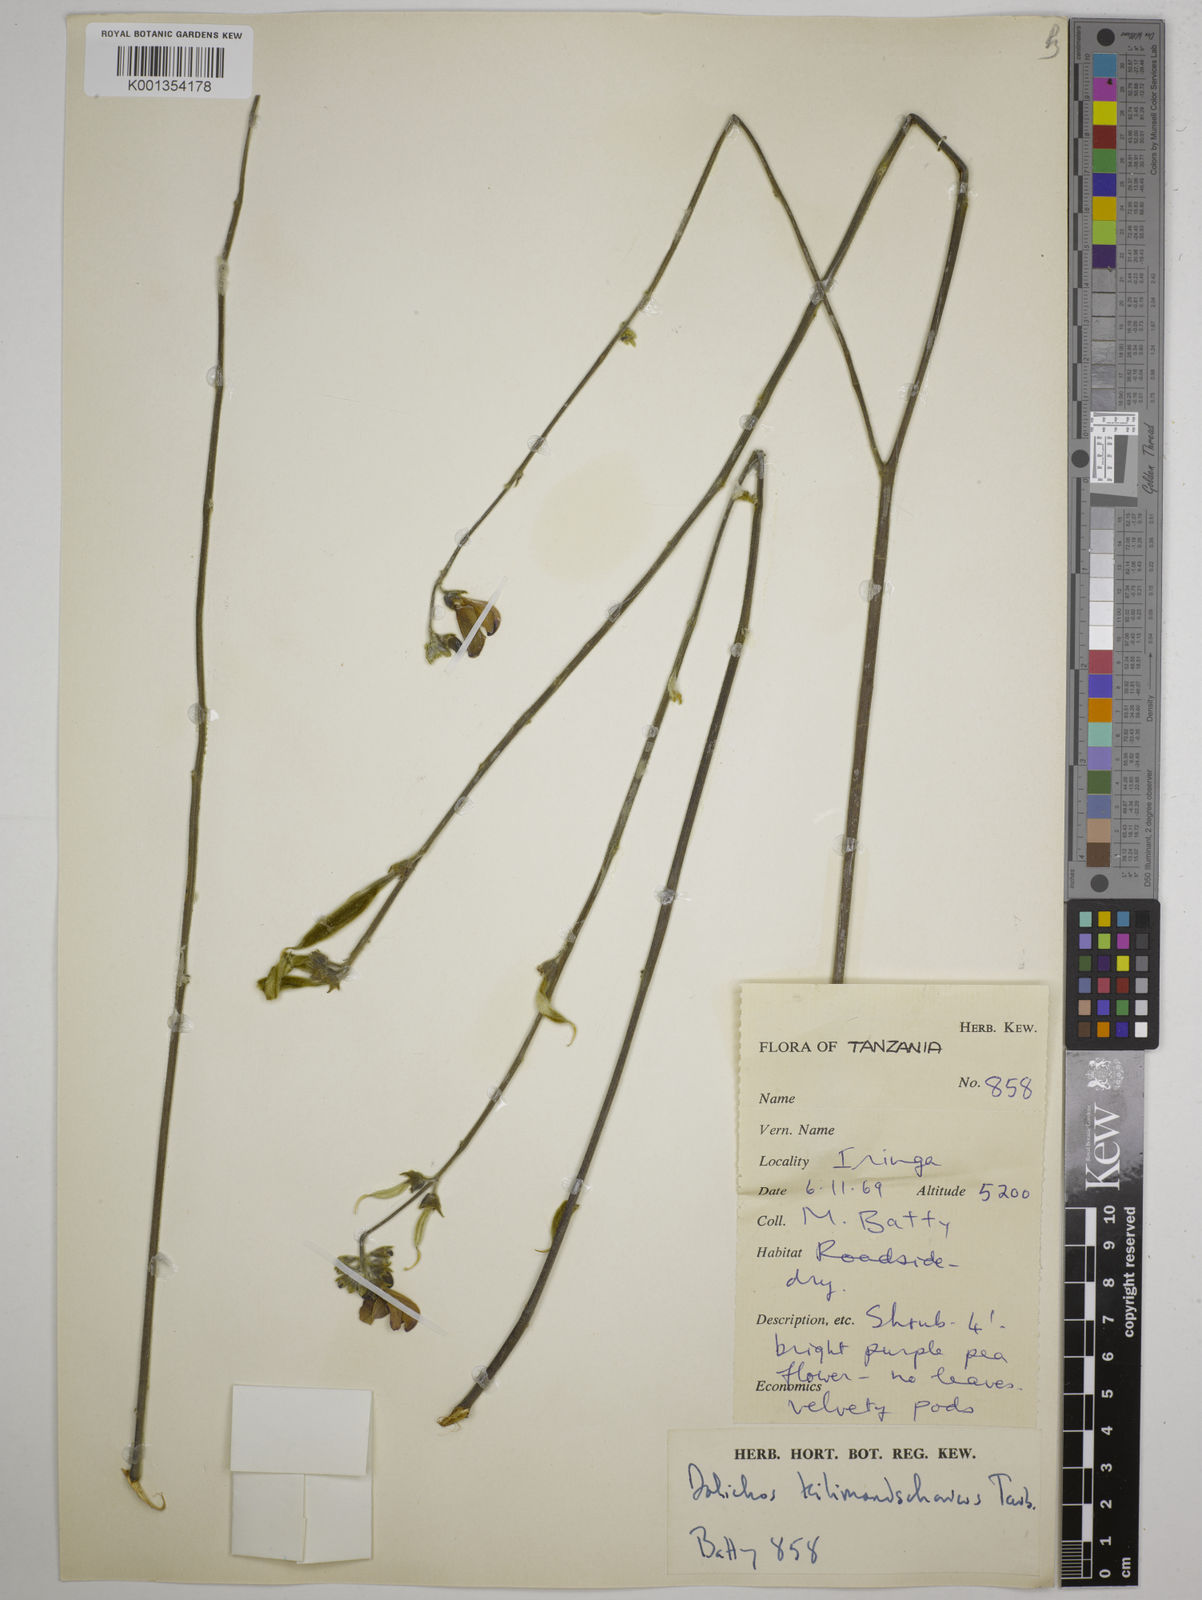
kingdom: Plantae
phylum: Tracheophyta
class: Magnoliopsida
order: Fabales
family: Fabaceae
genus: Dolichos
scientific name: Dolichos kilimandscharicus
